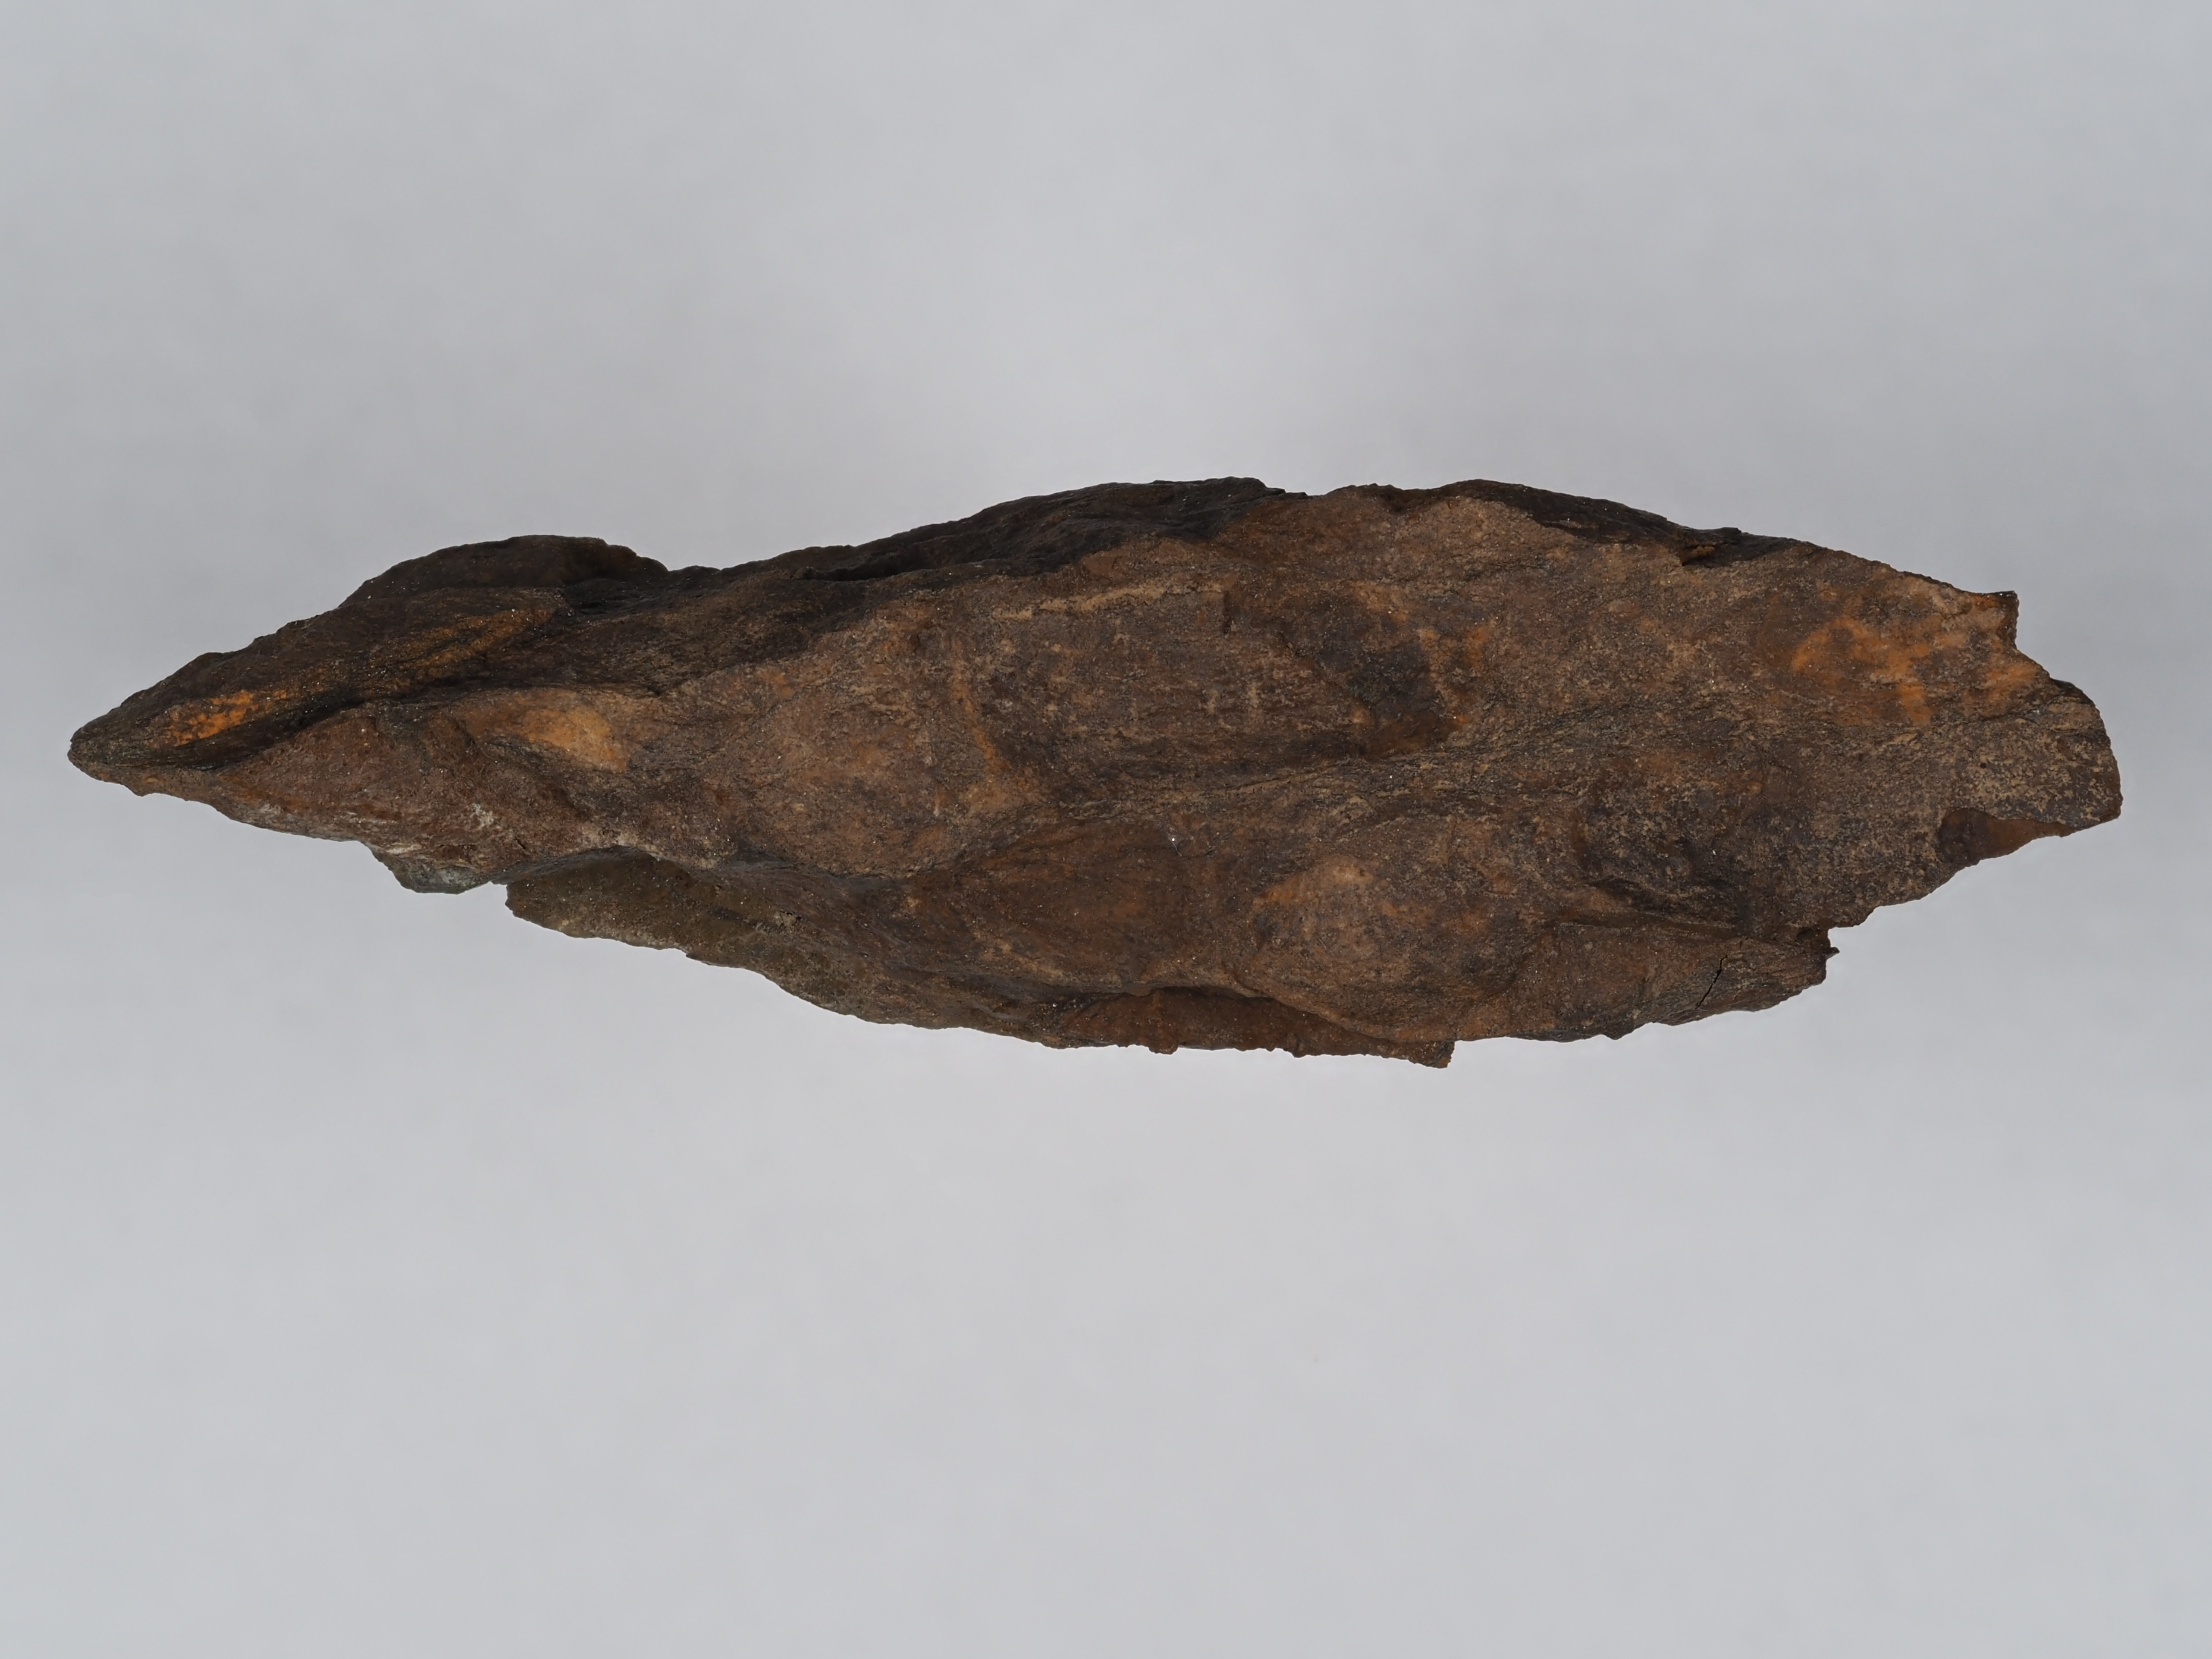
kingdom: Animalia
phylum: Mollusca
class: Bivalvia
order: Ostreida
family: Pterineidae
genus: Leptodesma
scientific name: Leptodesma
